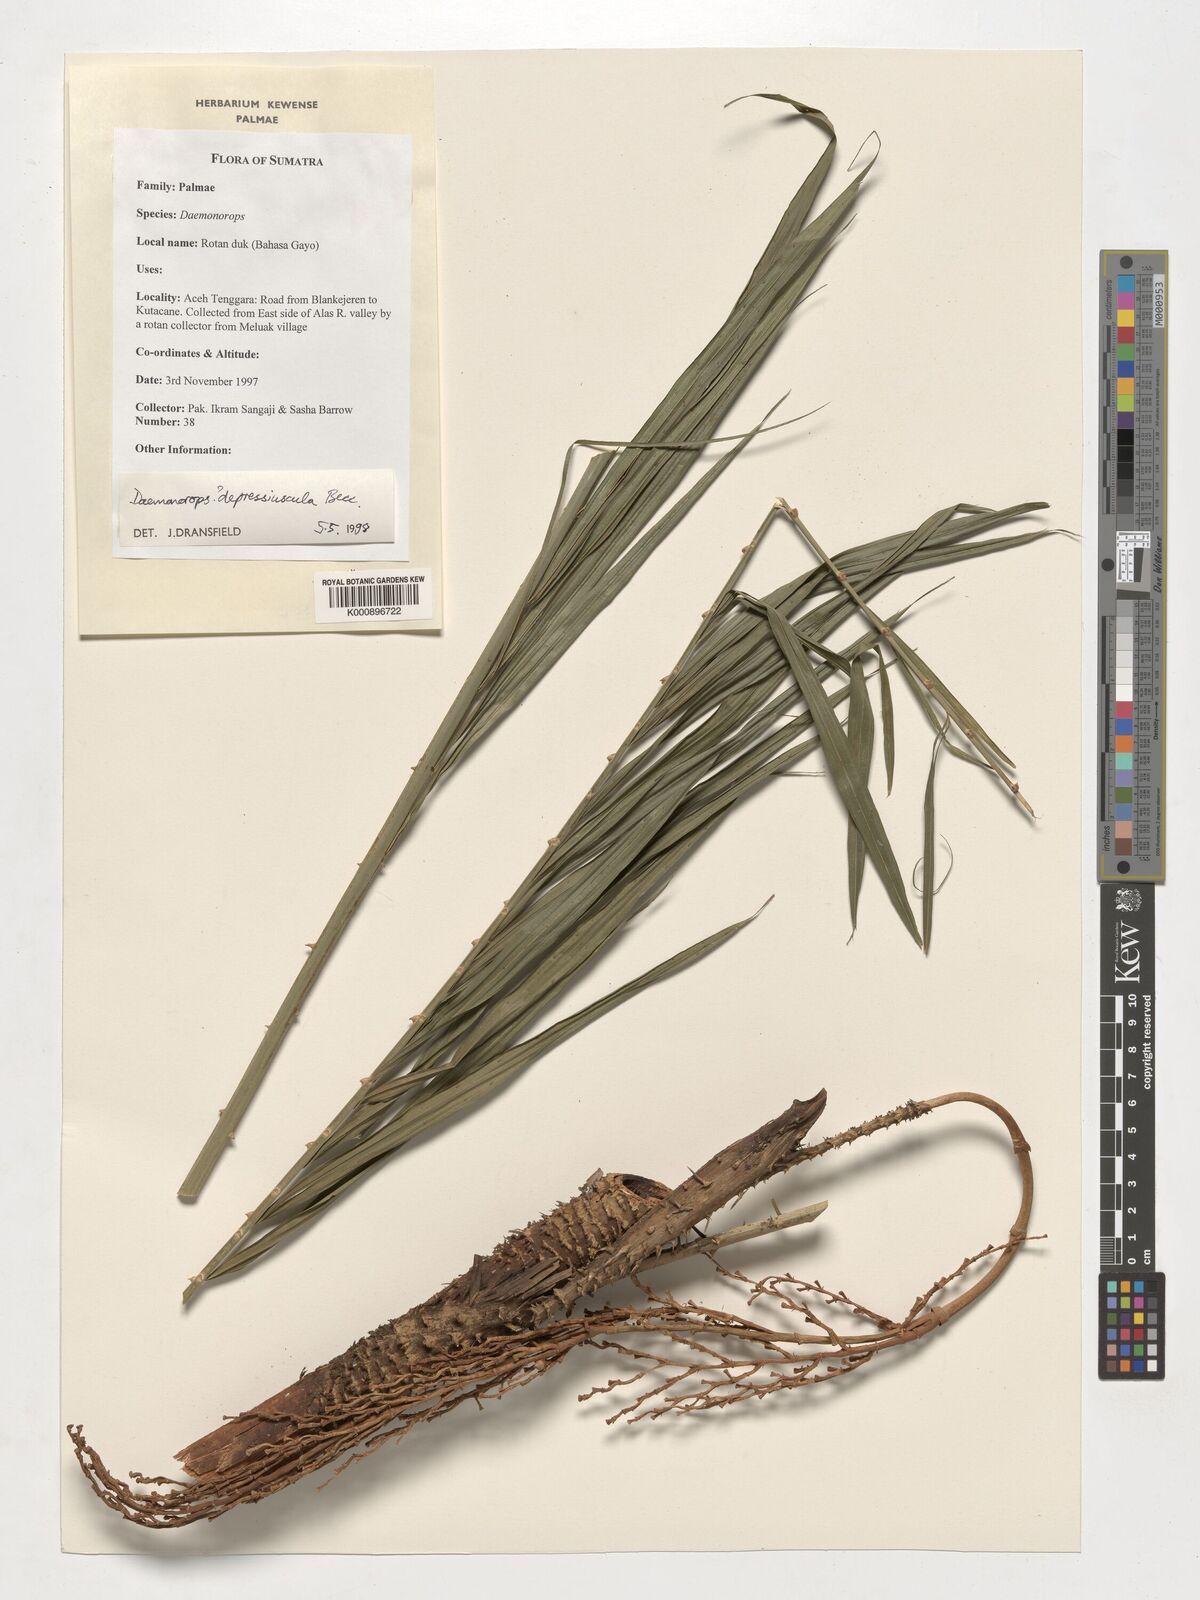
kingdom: Plantae
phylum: Tracheophyta
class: Liliopsida
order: Arecales
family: Arecaceae
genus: Daemonorops
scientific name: Daemonorops
